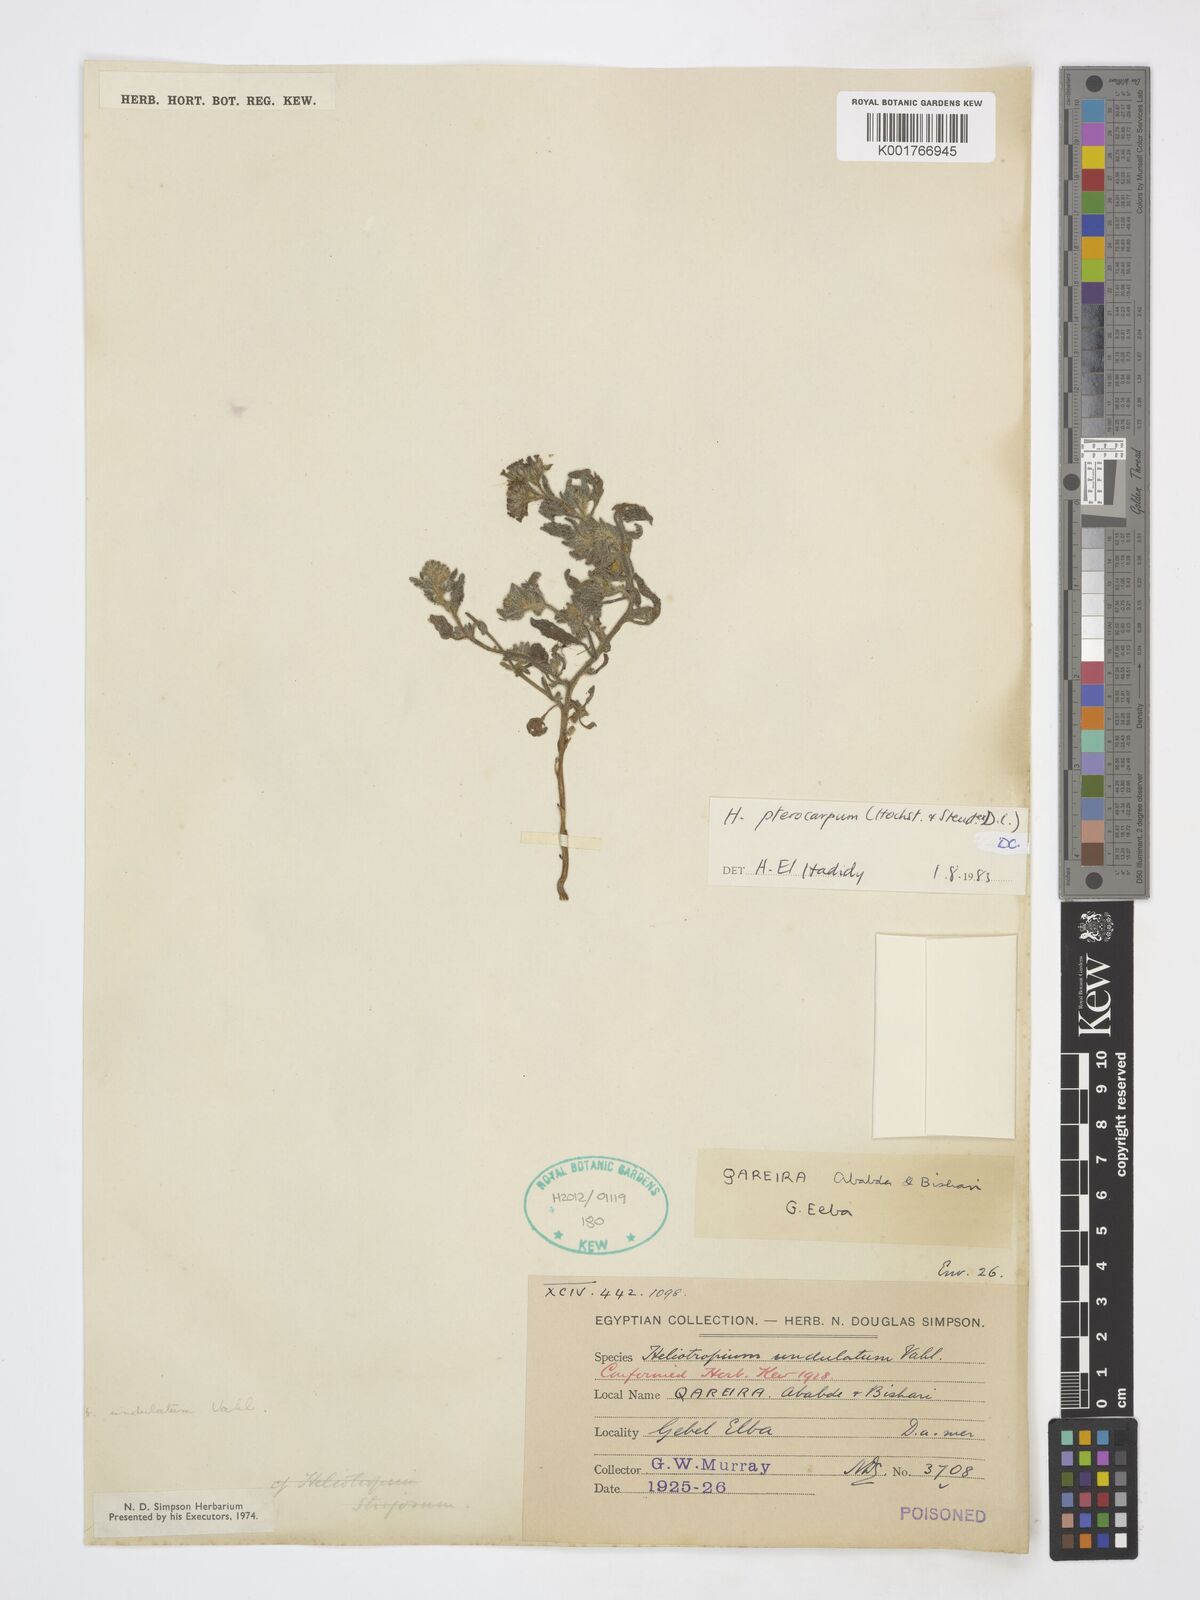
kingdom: Plantae
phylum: Tracheophyta
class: Magnoliopsida
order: Boraginales
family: Heliotropiaceae
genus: Heliotropium
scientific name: Heliotropium pterocarpum
